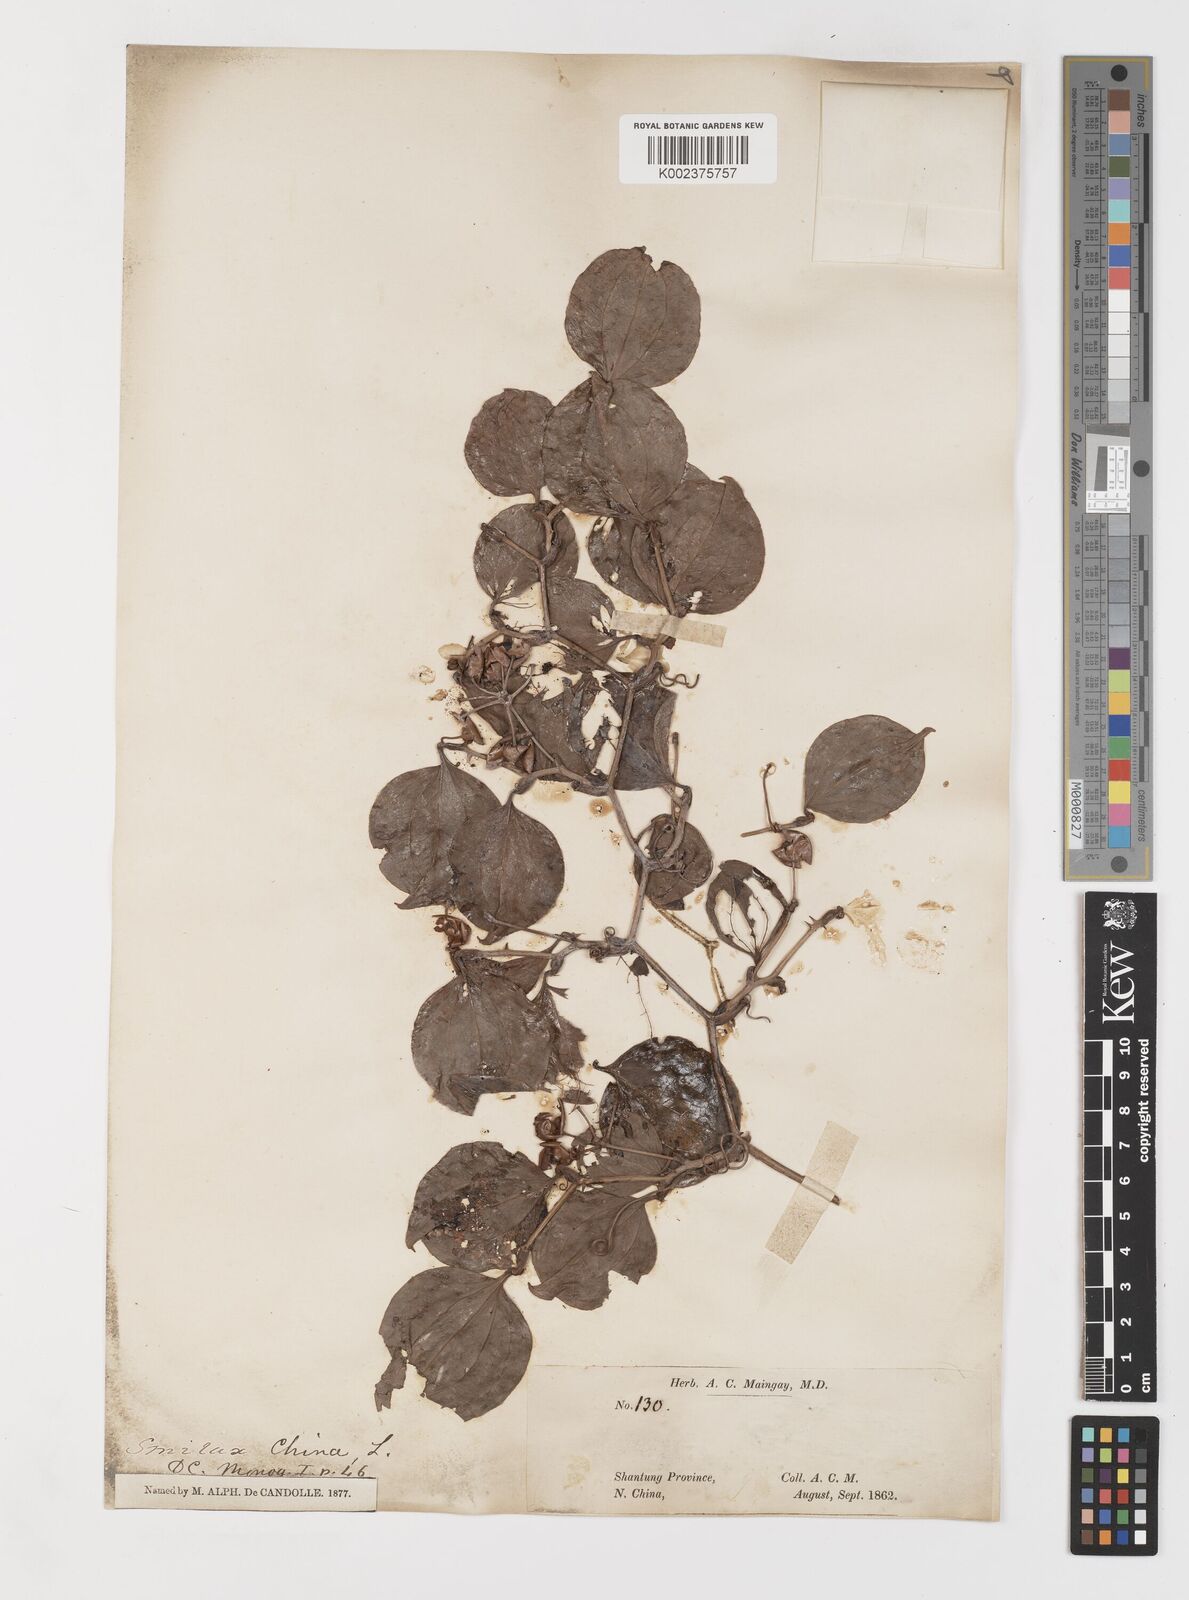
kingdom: Plantae
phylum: Tracheophyta
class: Liliopsida
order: Liliales
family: Smilacaceae
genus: Smilax
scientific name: Smilax china
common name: Chinaroot
